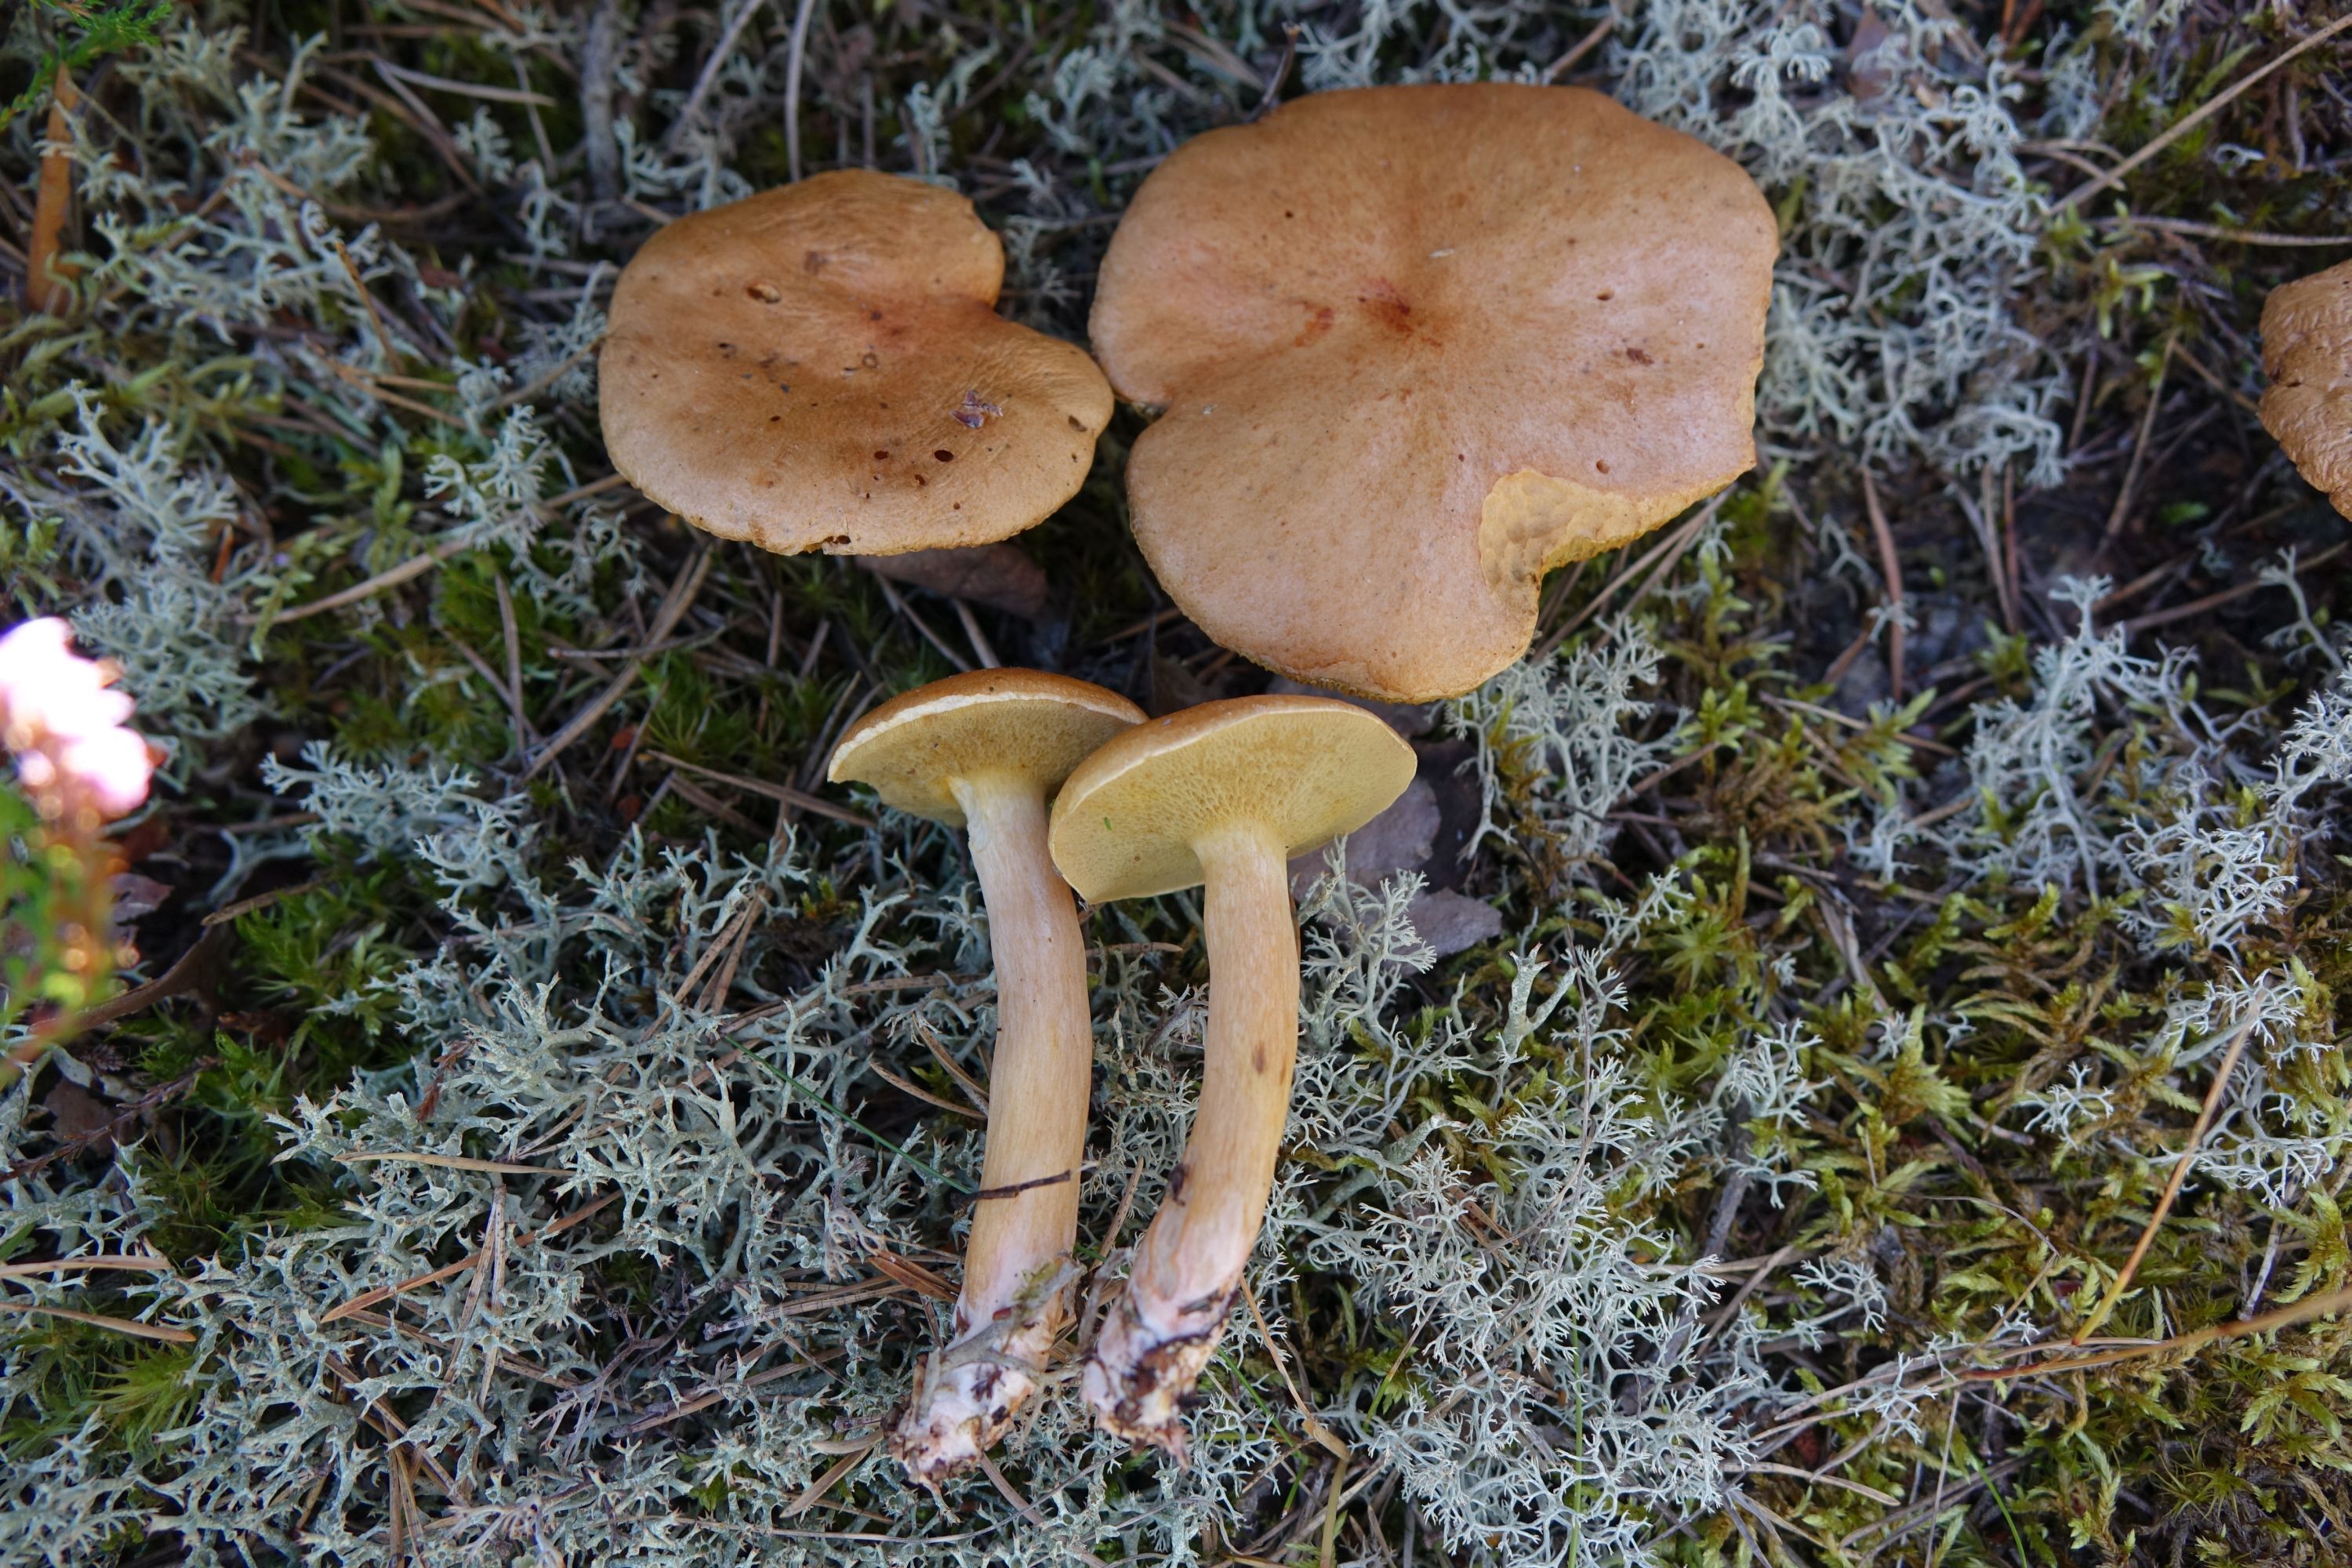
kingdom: Fungi
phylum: Basidiomycota
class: Agaricomycetes
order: Boletales
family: Suillaceae
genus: Suillus
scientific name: Suillus bovinus
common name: Bovine bolete
